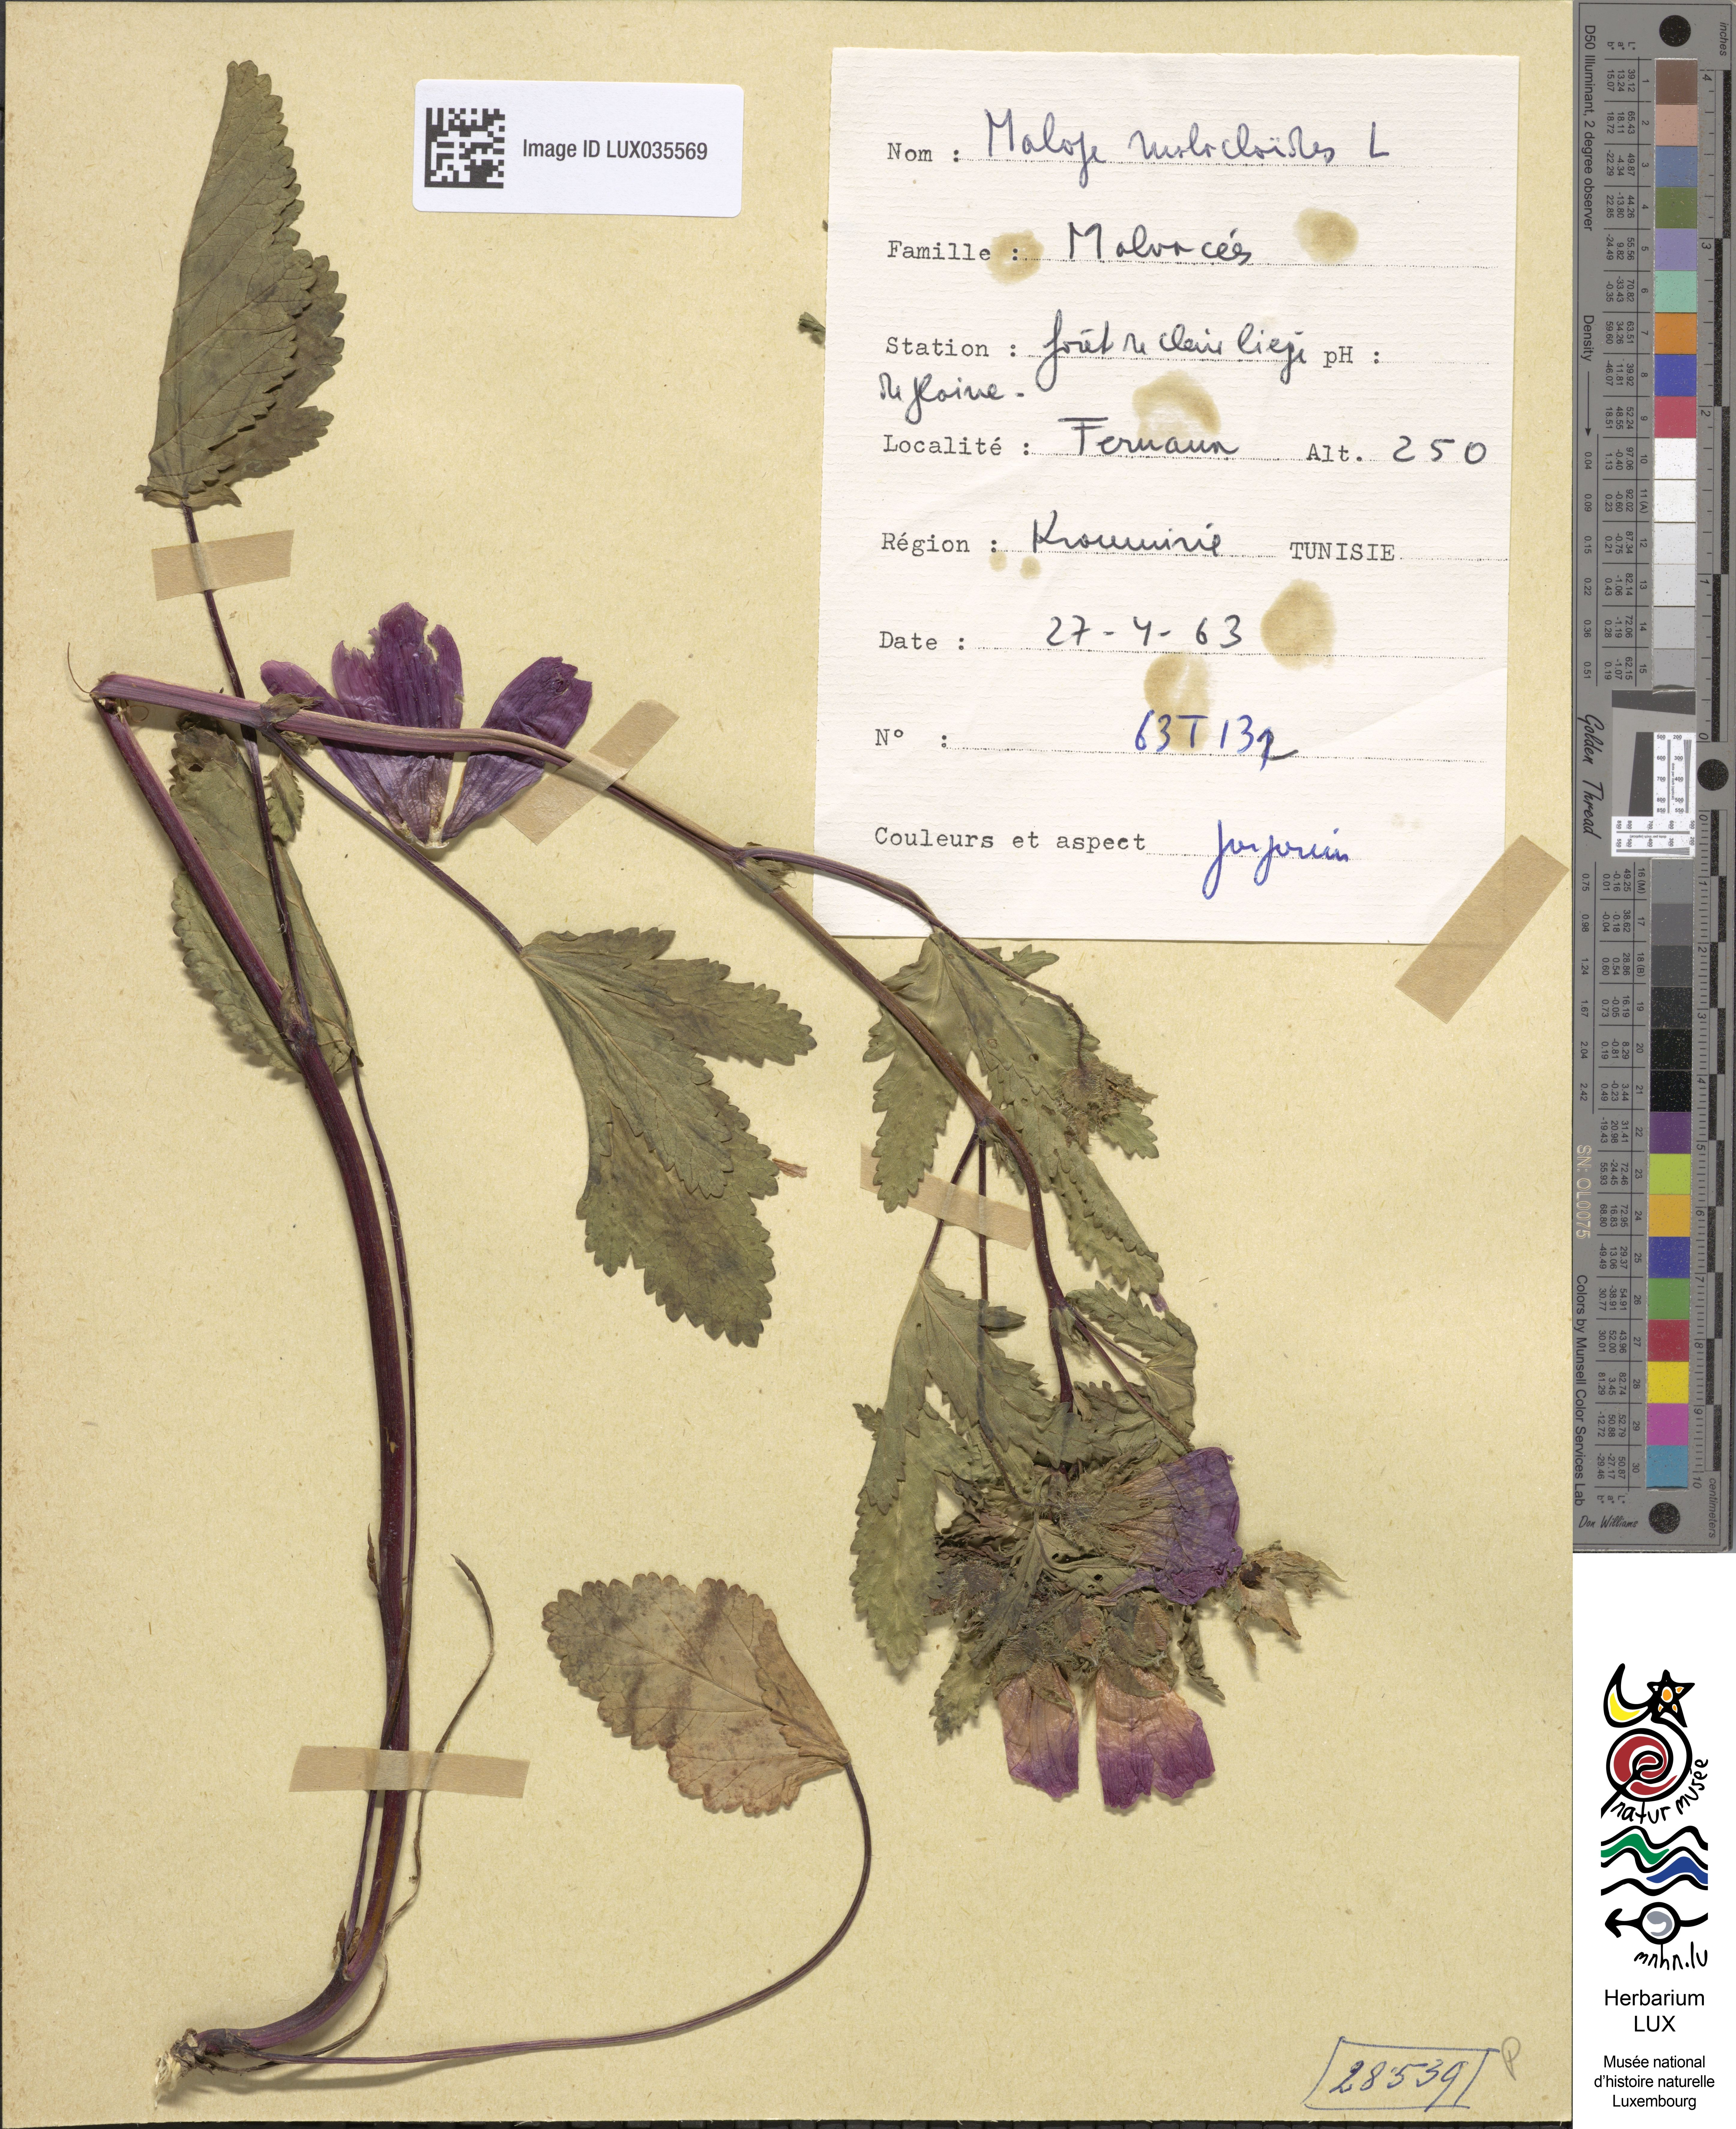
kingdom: Plantae
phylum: Tracheophyta
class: Magnoliopsida
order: Malvales
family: Malvaceae
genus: Malope
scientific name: Malope malacoides
